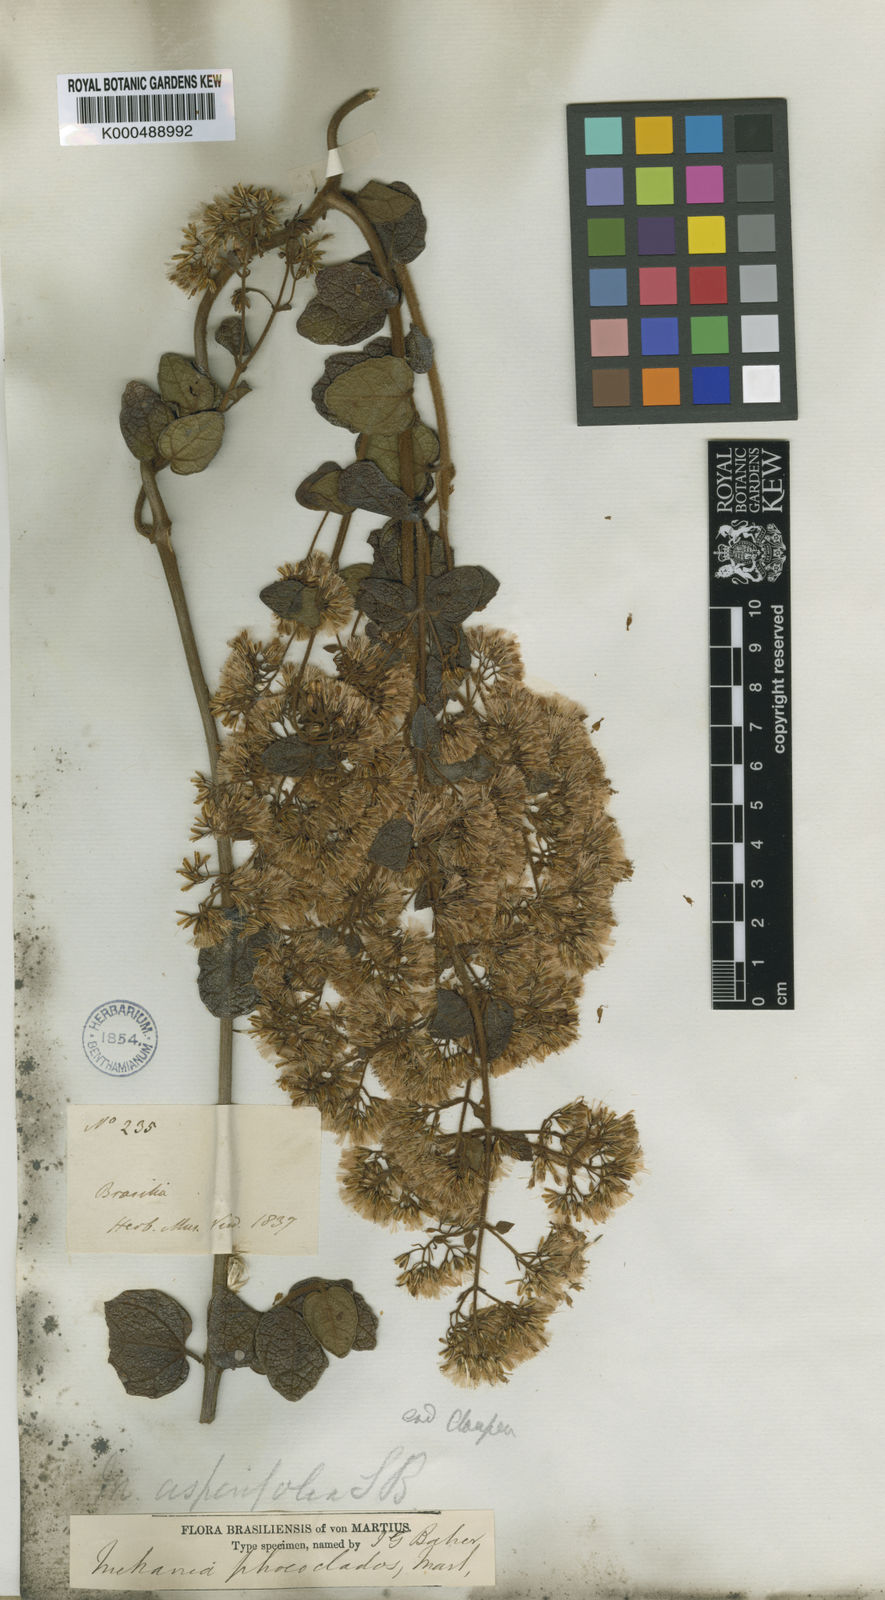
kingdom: Plantae
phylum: Tracheophyta
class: Magnoliopsida
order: Asterales
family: Asteraceae
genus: Mikania
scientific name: Mikania
